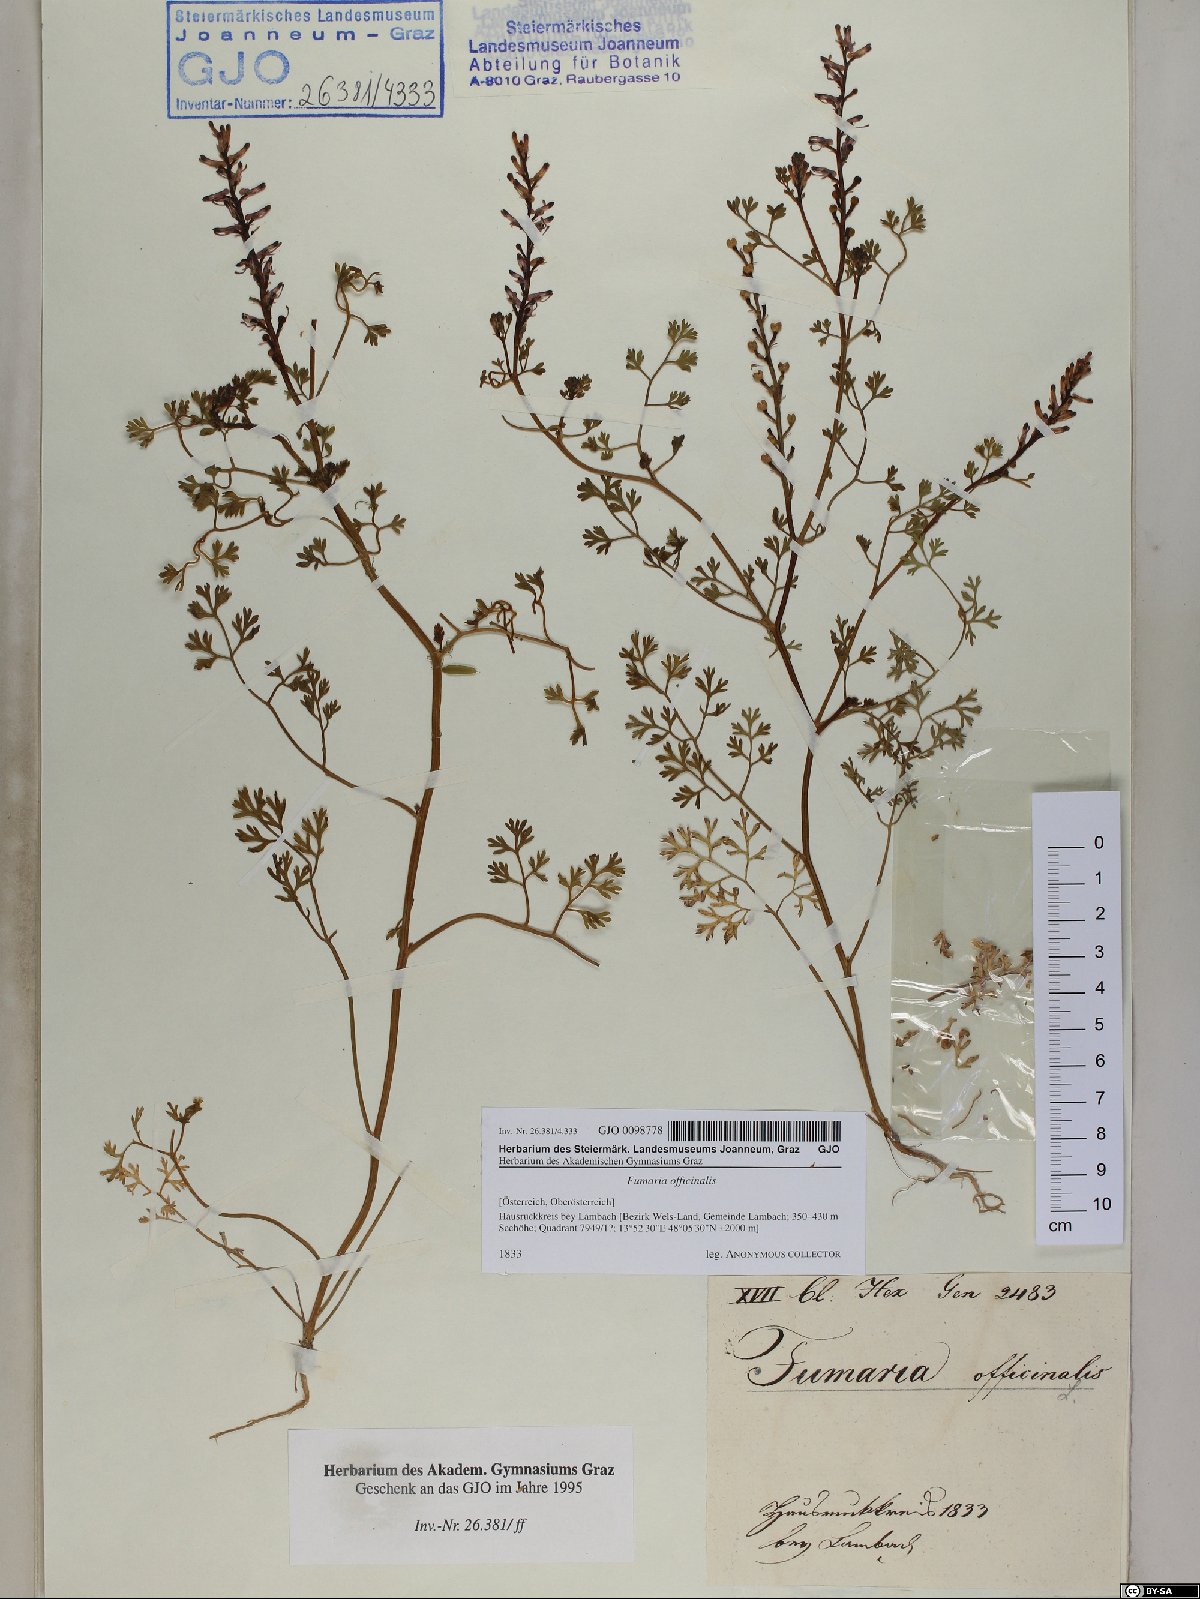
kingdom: Plantae
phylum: Tracheophyta
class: Magnoliopsida
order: Ranunculales
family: Papaveraceae
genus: Fumaria
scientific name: Fumaria officinalis
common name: Common fumitory
